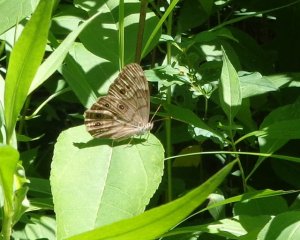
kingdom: Animalia
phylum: Arthropoda
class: Insecta
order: Lepidoptera
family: Nymphalidae
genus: Lethe
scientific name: Lethe anthedon
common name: Northern Pearly-Eye
